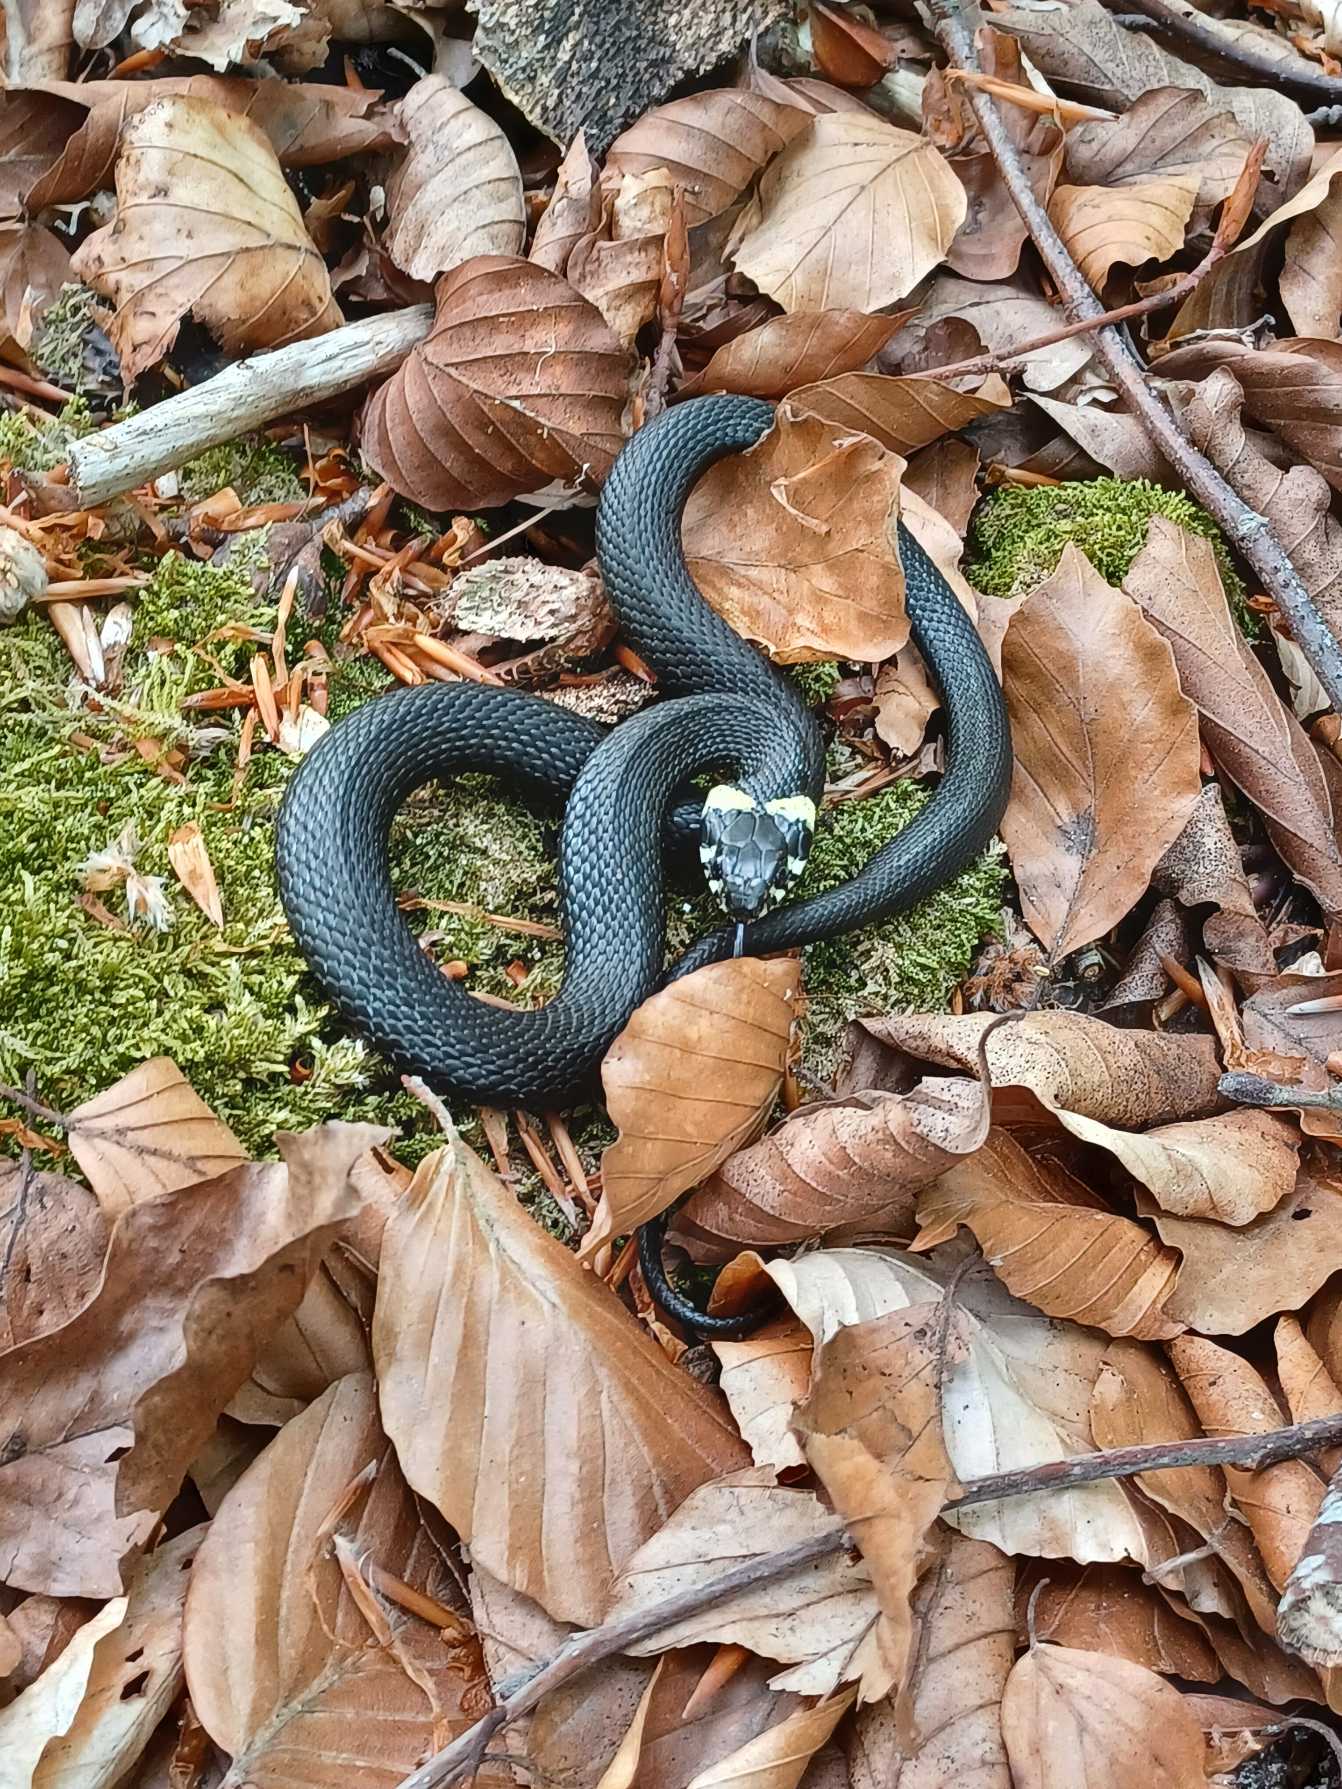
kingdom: Animalia
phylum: Chordata
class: Squamata
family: Colubridae
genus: Natrix
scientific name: Natrix natrix
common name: Snog
